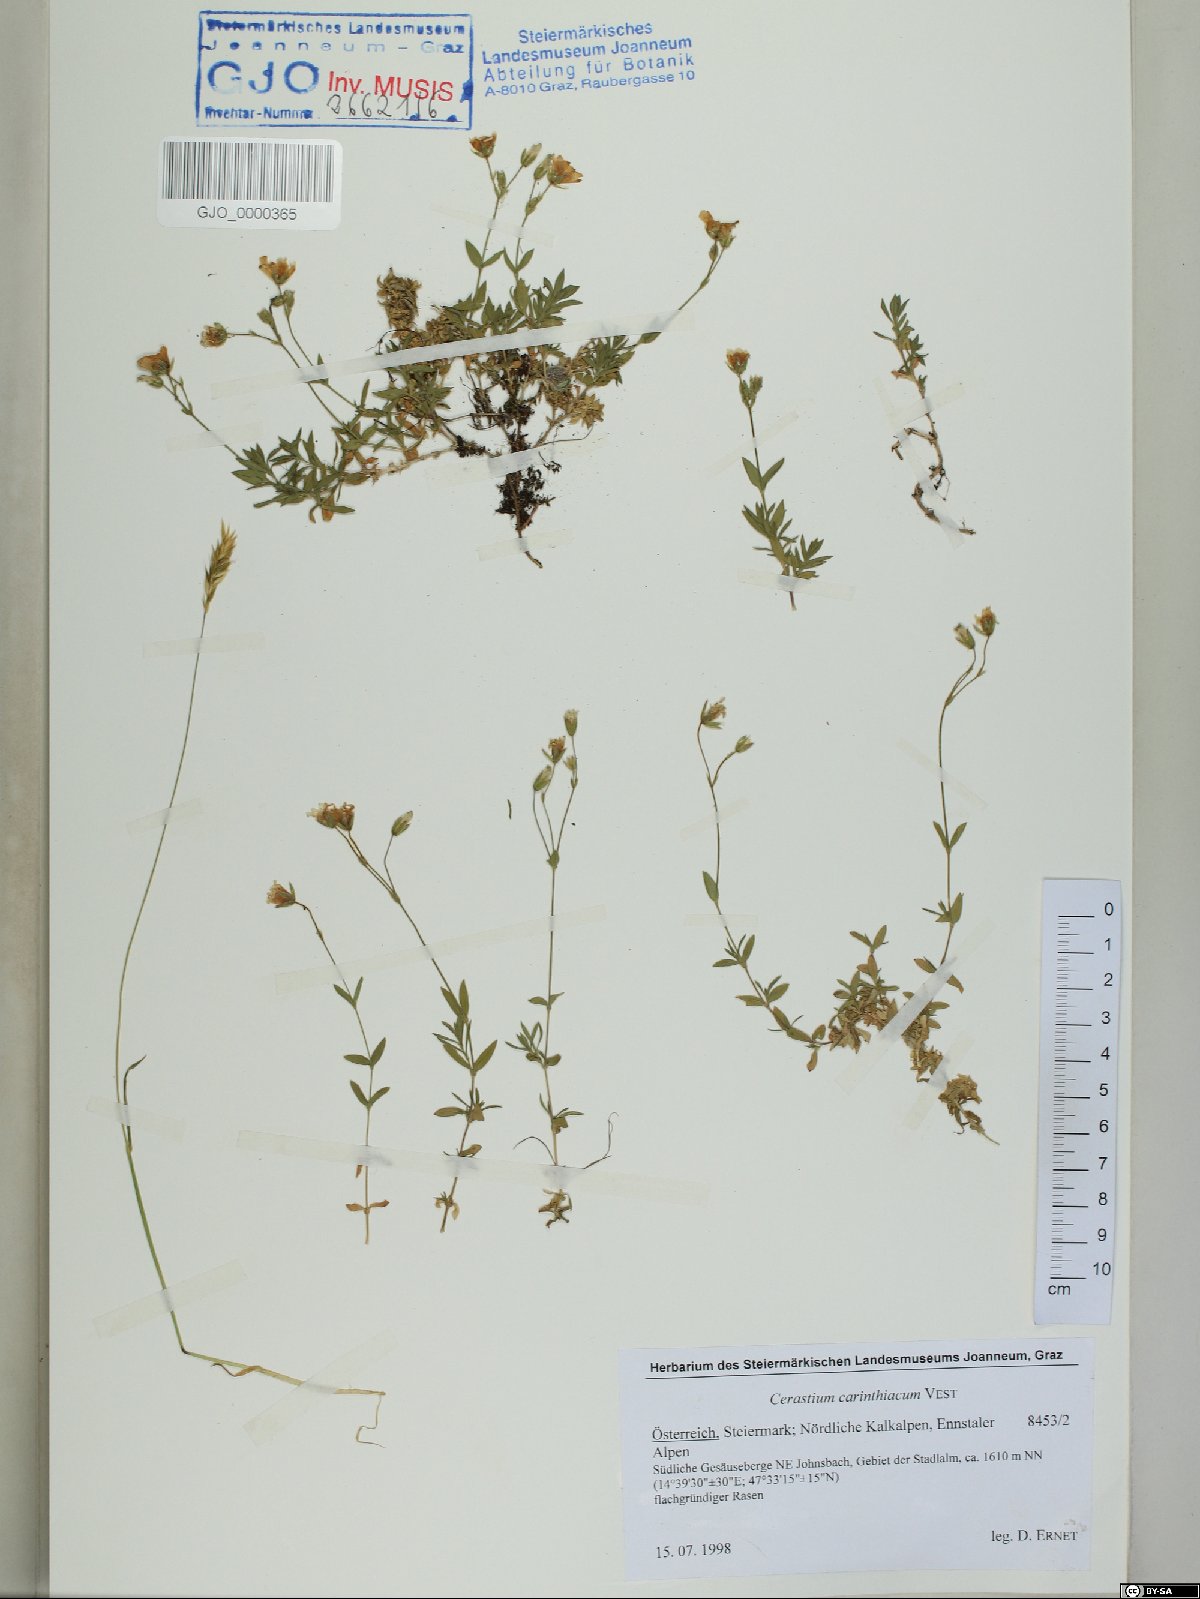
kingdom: Plantae
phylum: Tracheophyta
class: Magnoliopsida
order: Caryophyllales
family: Caryophyllaceae
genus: Cerastium
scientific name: Cerastium carinthiacum
